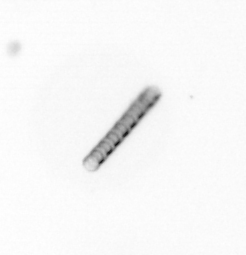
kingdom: Chromista
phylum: Ochrophyta
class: Bacillariophyceae
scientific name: Bacillariophyceae
